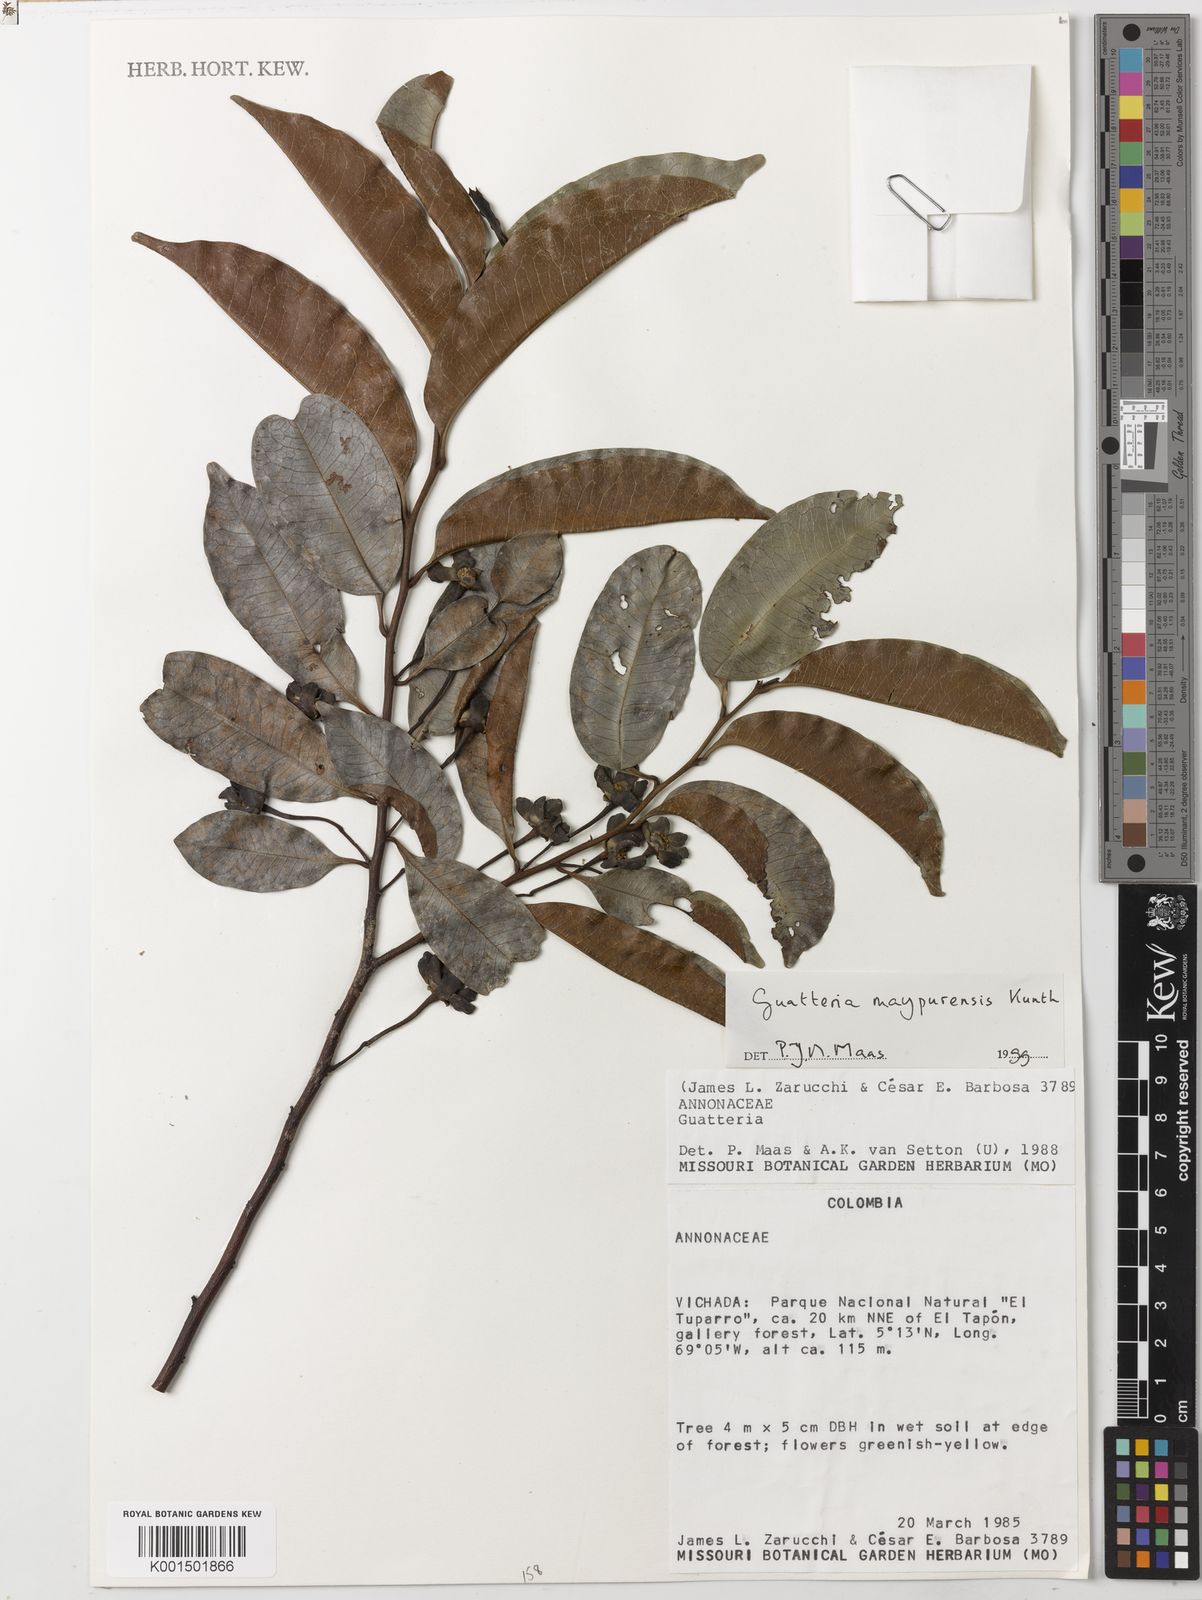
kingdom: Plantae
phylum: Tracheophyta
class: Magnoliopsida
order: Magnoliales
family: Annonaceae
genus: Guatteria
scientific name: Guatteria maypurensis
